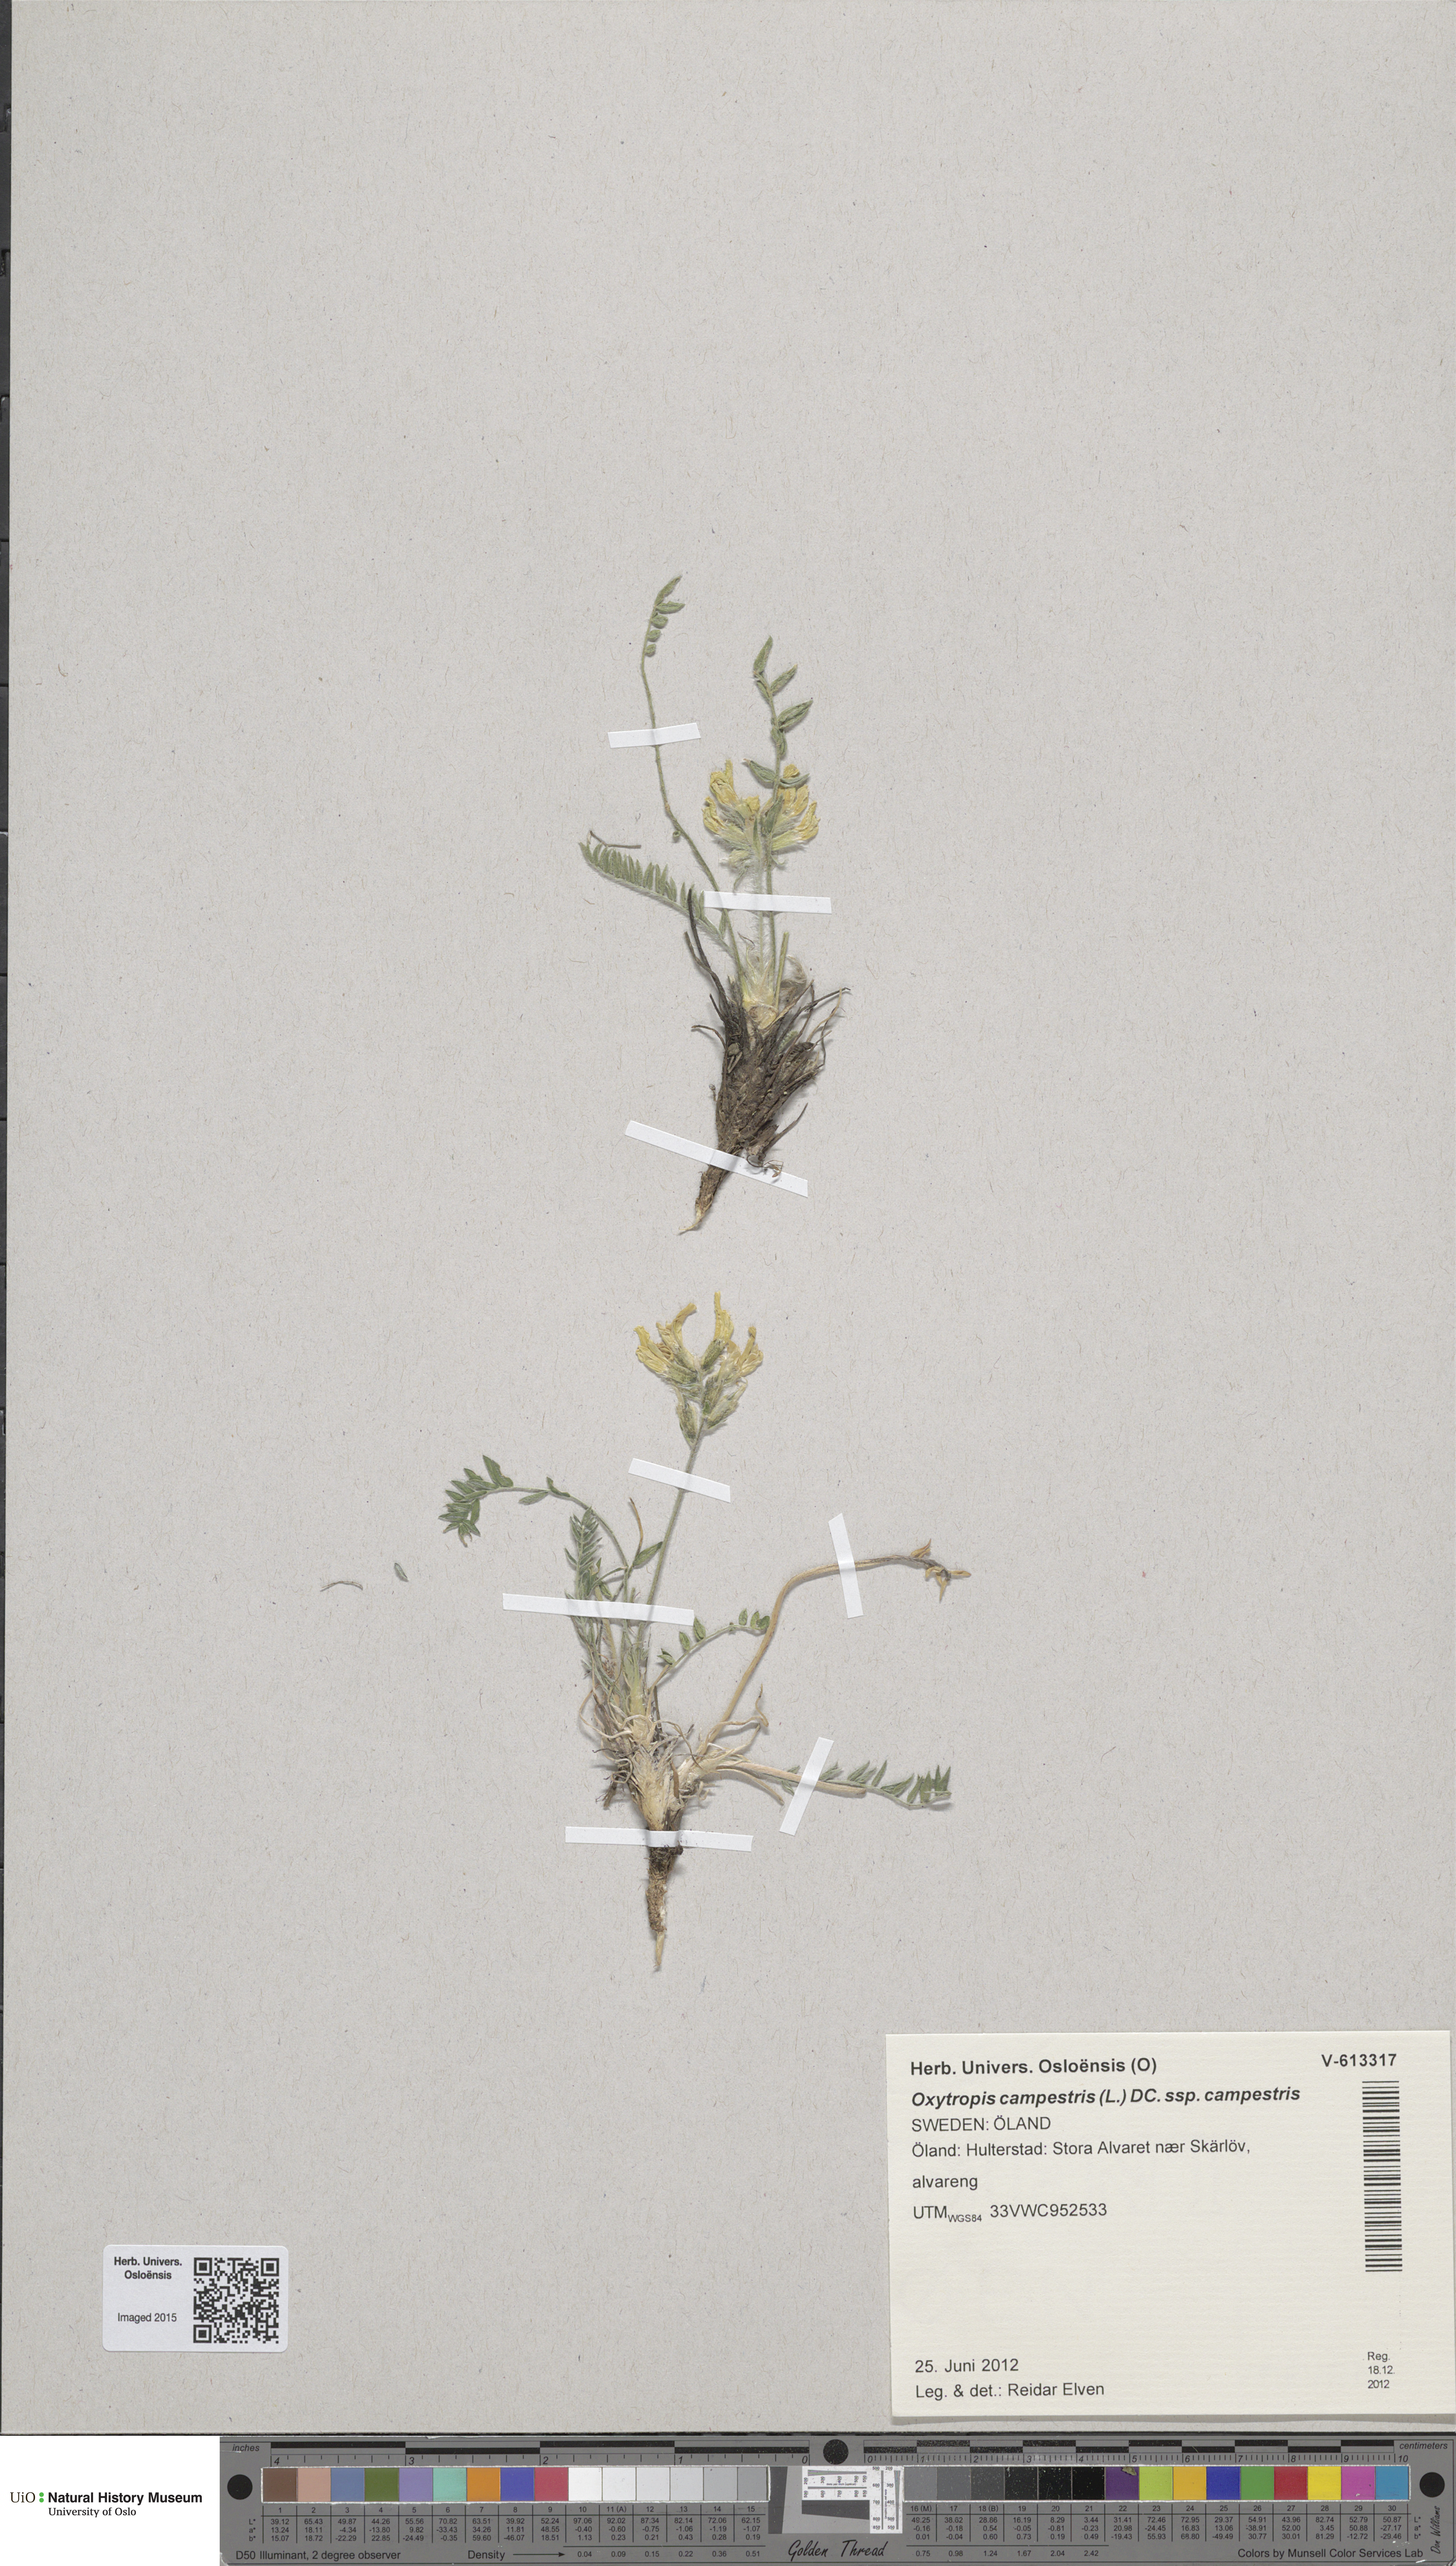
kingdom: Plantae
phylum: Tracheophyta
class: Magnoliopsida
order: Fabales
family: Fabaceae
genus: Oxytropis
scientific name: Oxytropis campestris
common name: Field locoweed
